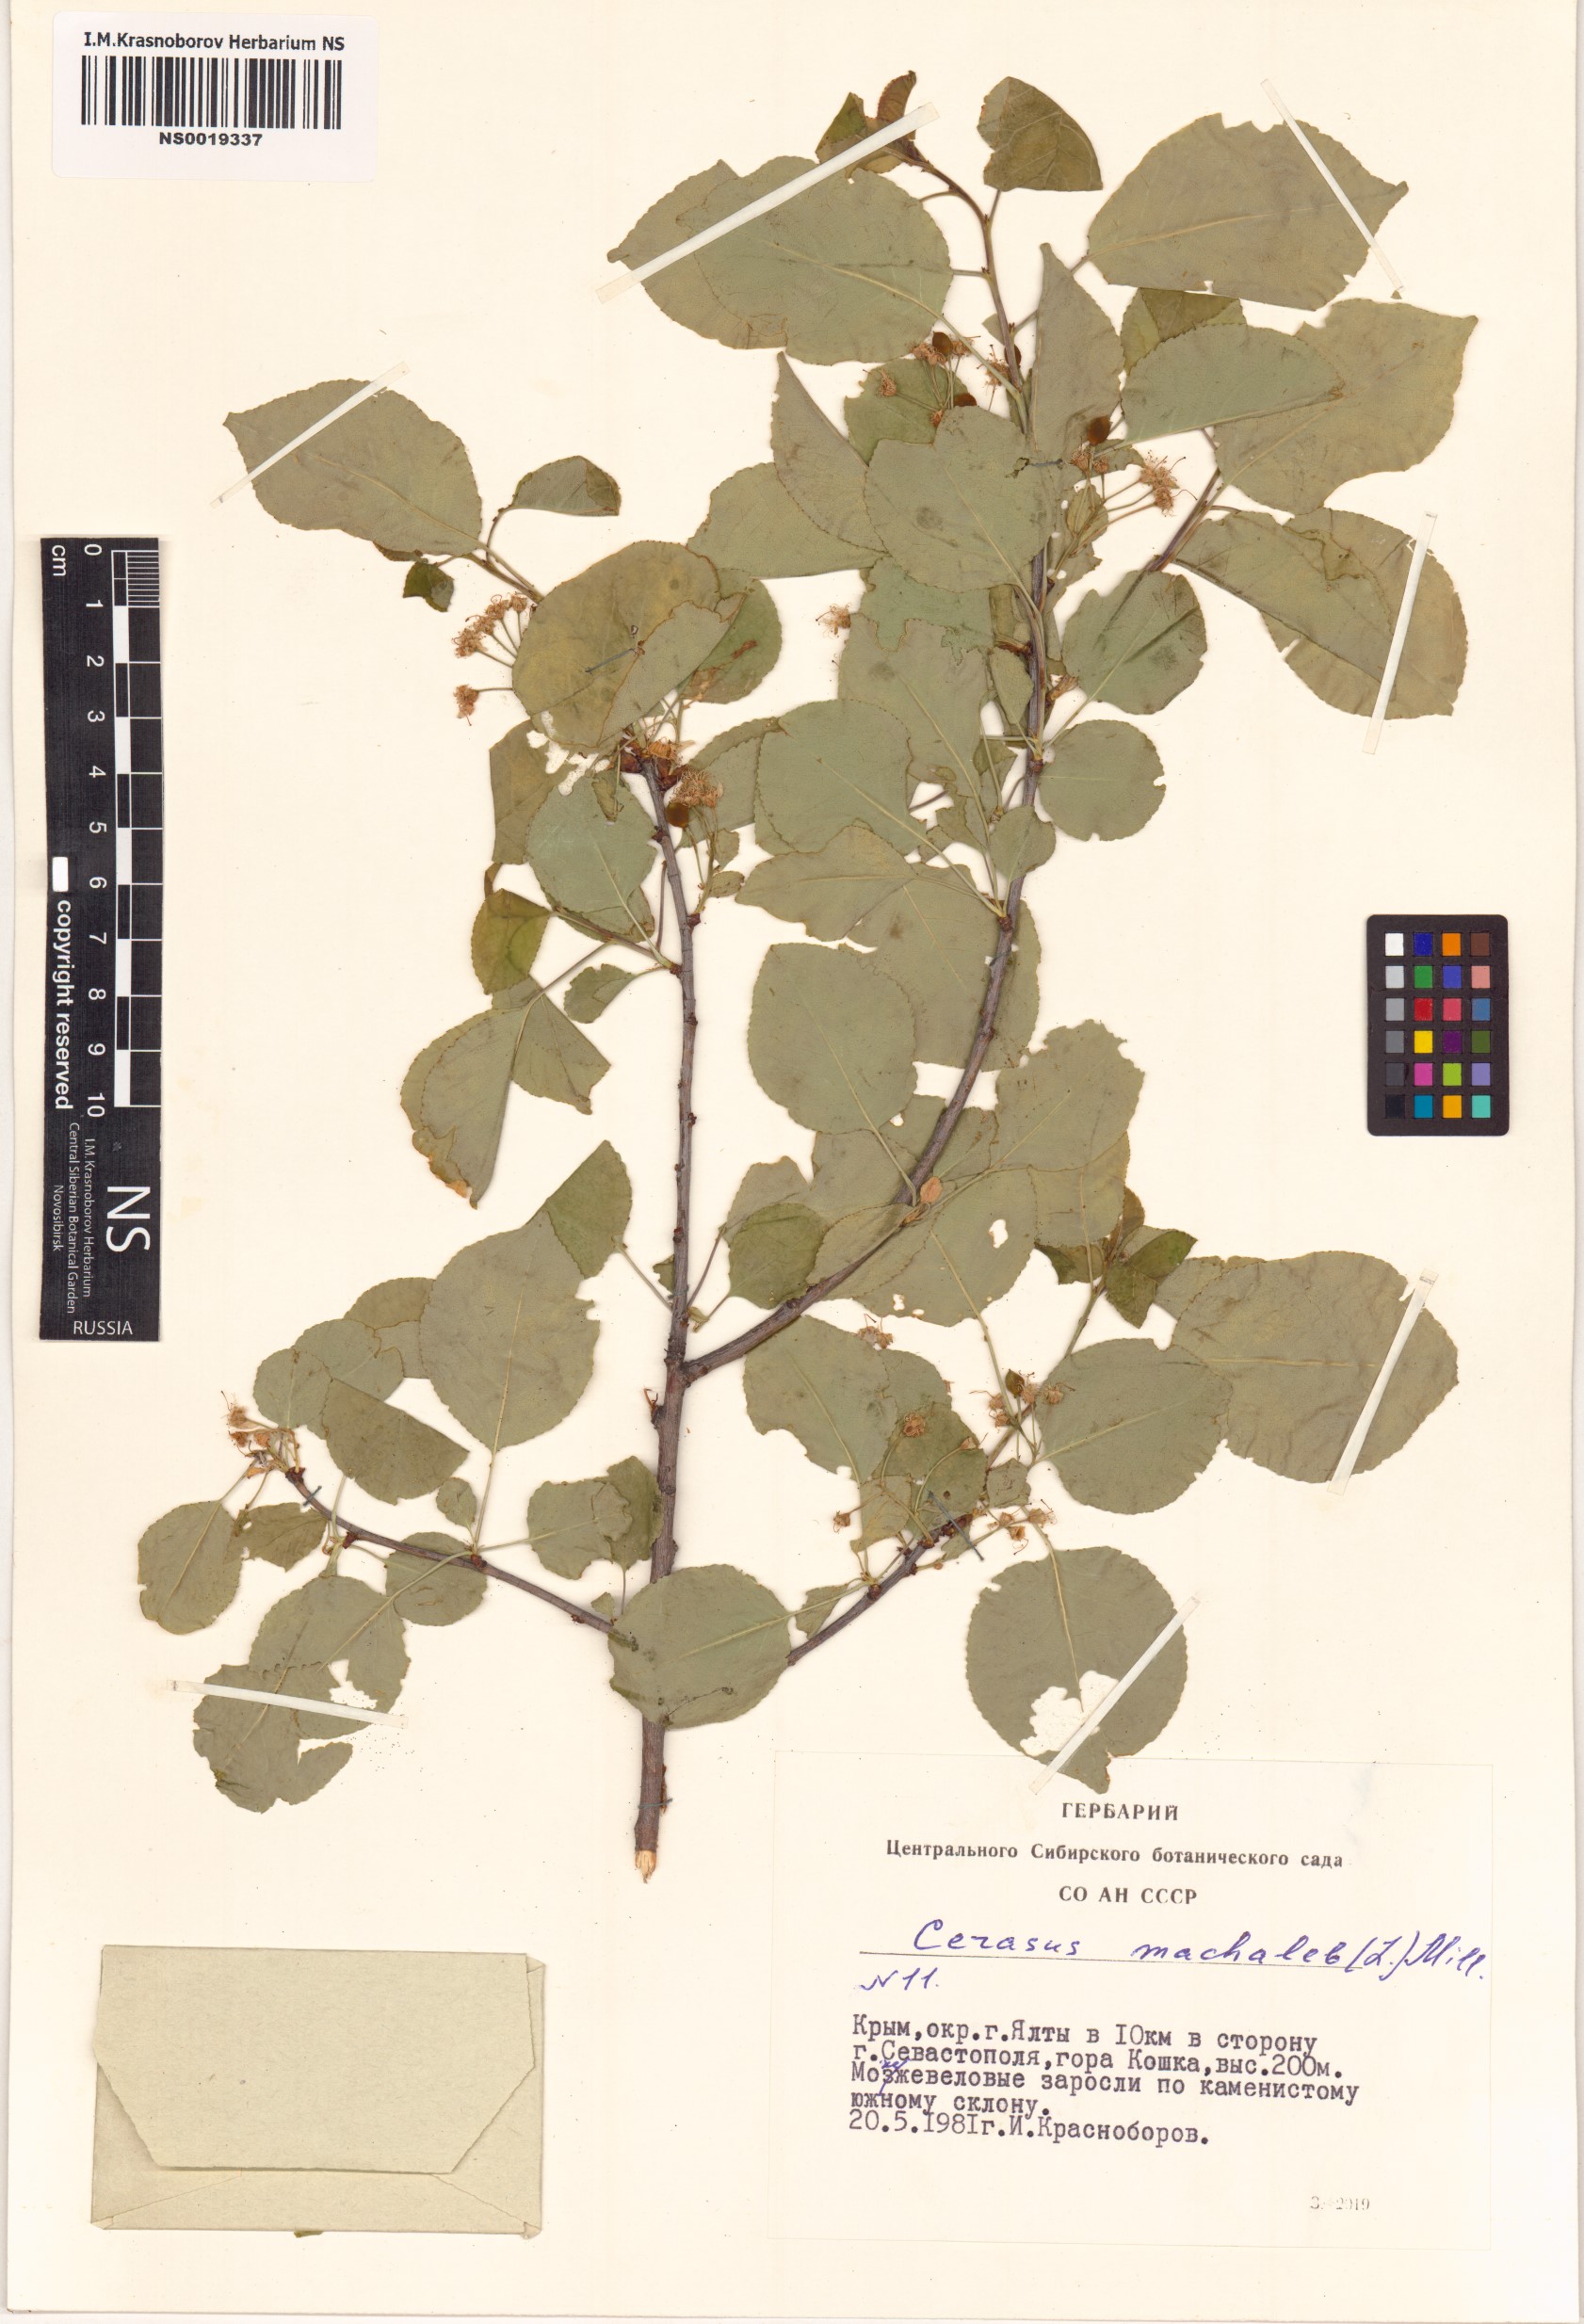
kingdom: Plantae
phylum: Tracheophyta
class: Magnoliopsida
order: Rosales
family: Rosaceae
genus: Prunus
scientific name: Prunus mahaleb
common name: Mahaleb cherry
